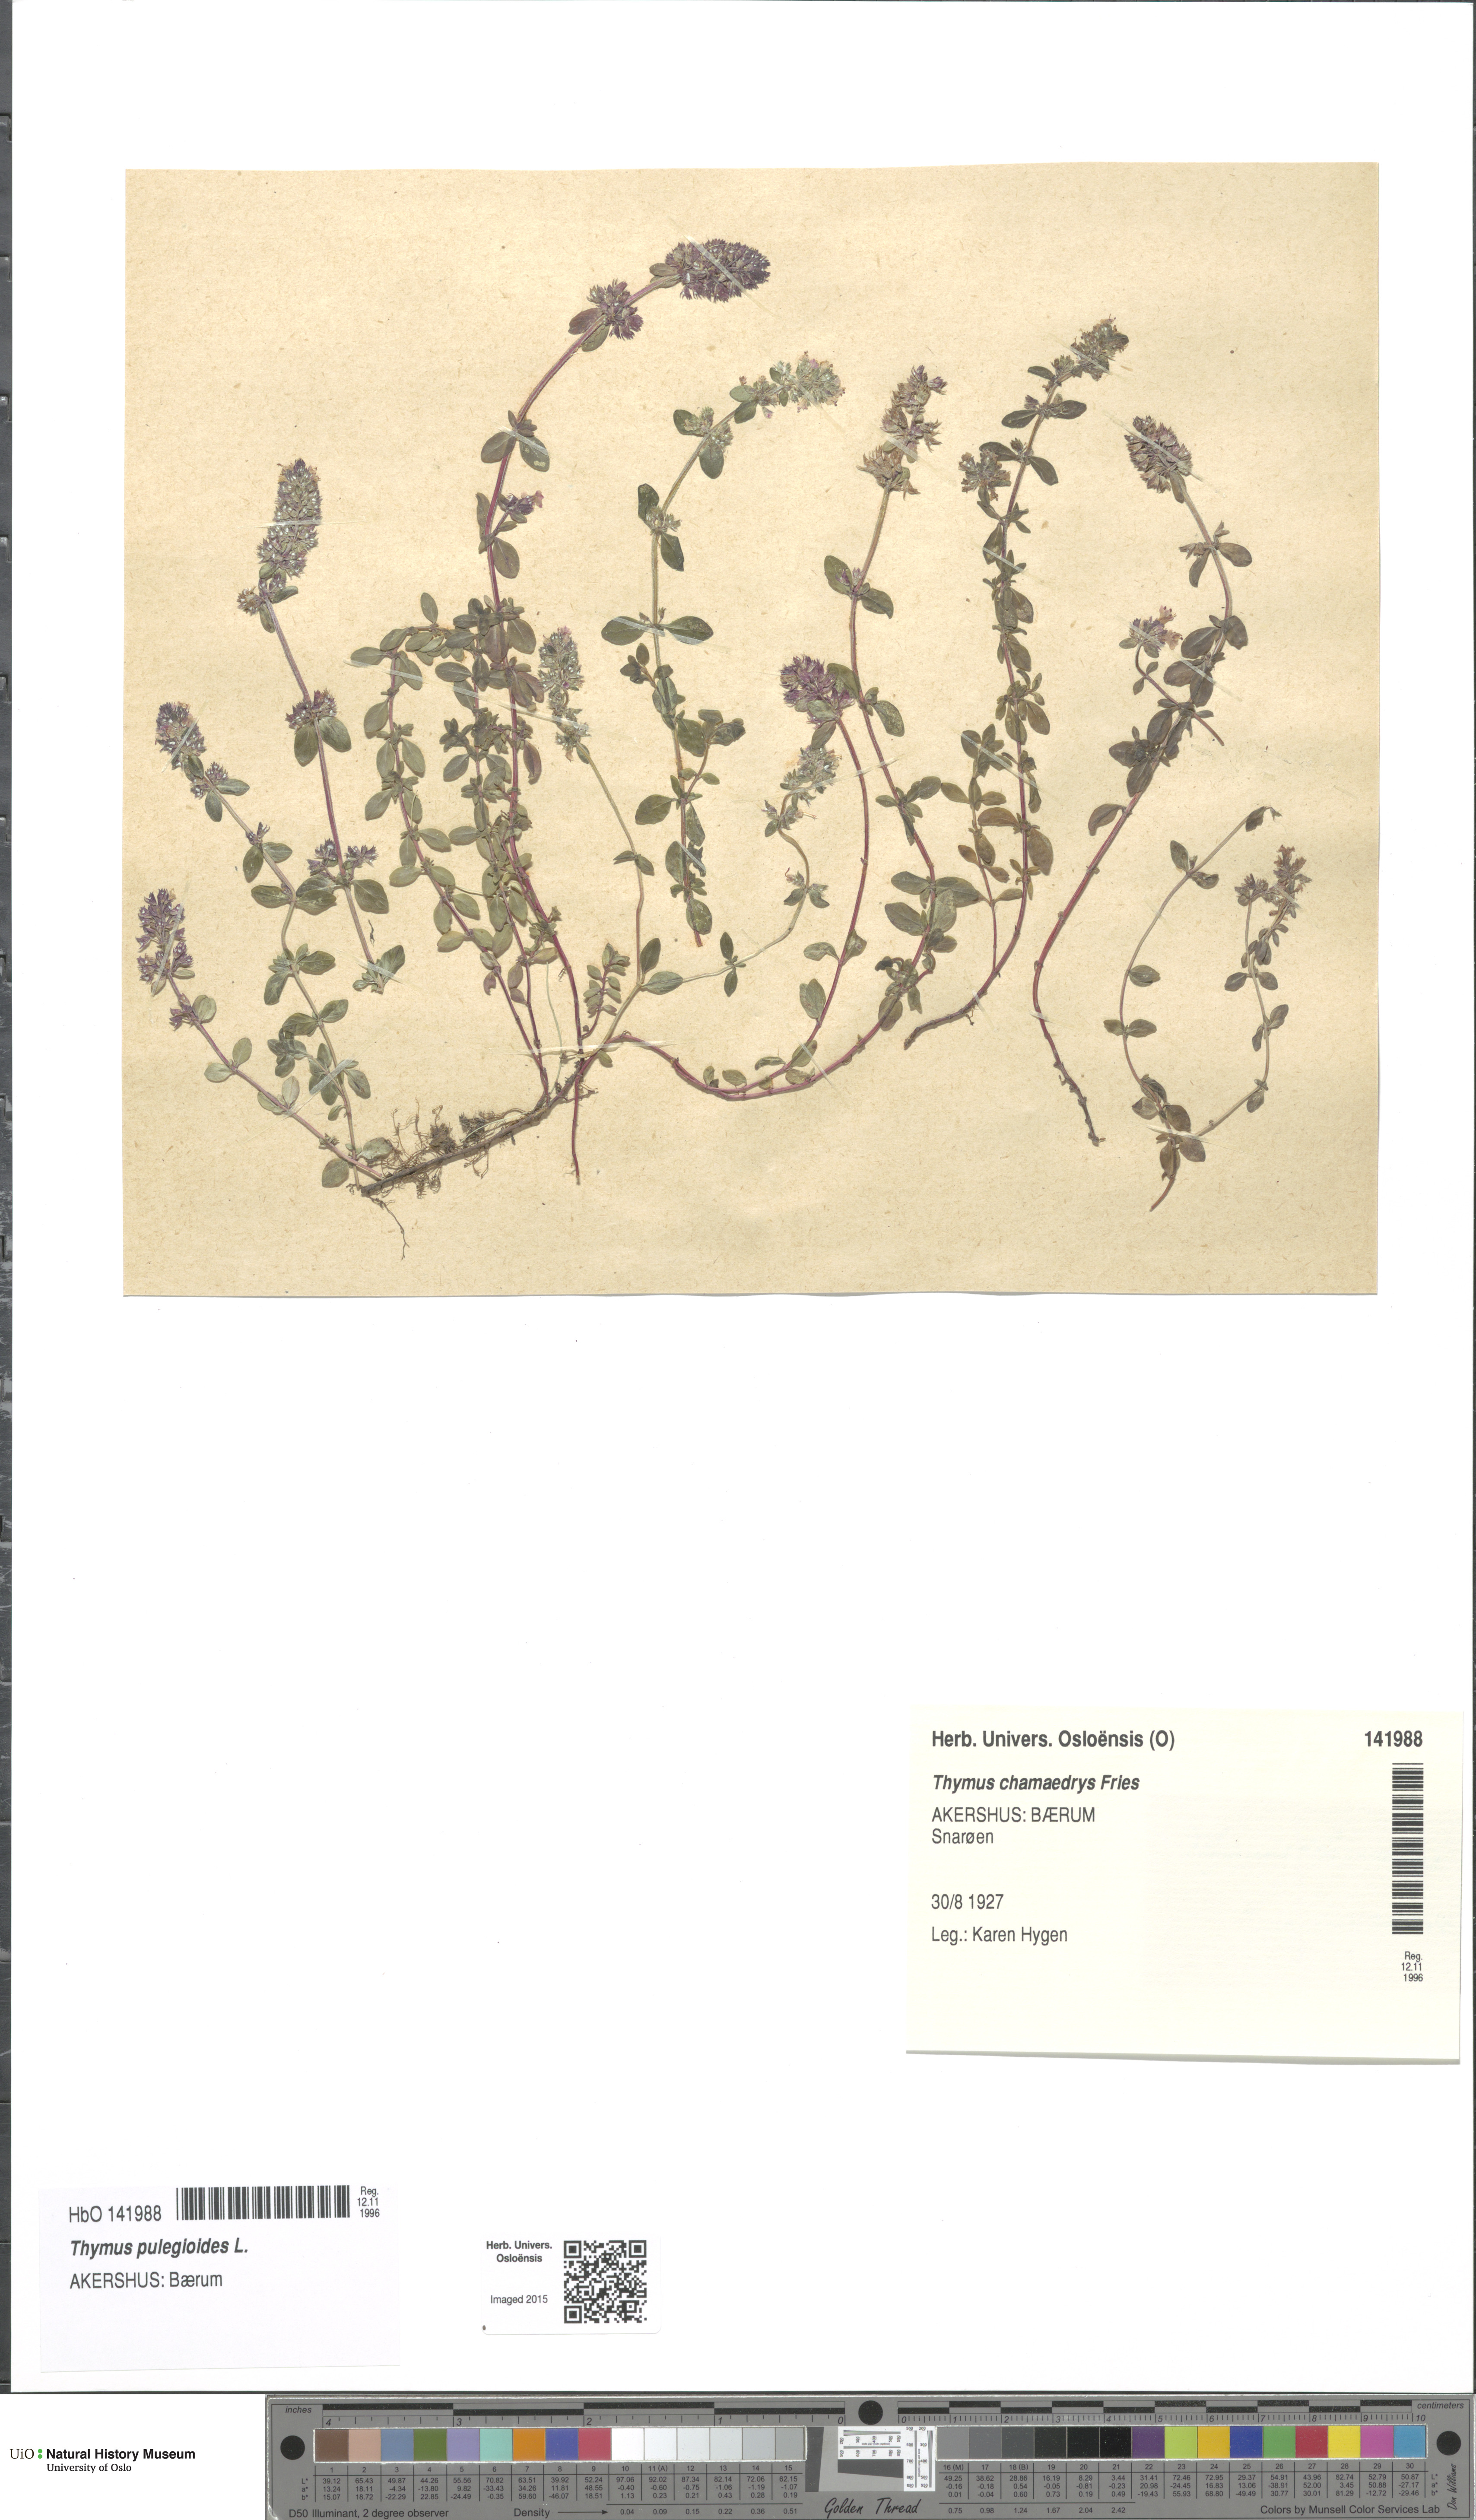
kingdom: Plantae
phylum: Tracheophyta
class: Magnoliopsida
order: Lamiales
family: Lamiaceae
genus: Thymus
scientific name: Thymus pulegioides
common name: Large thyme
